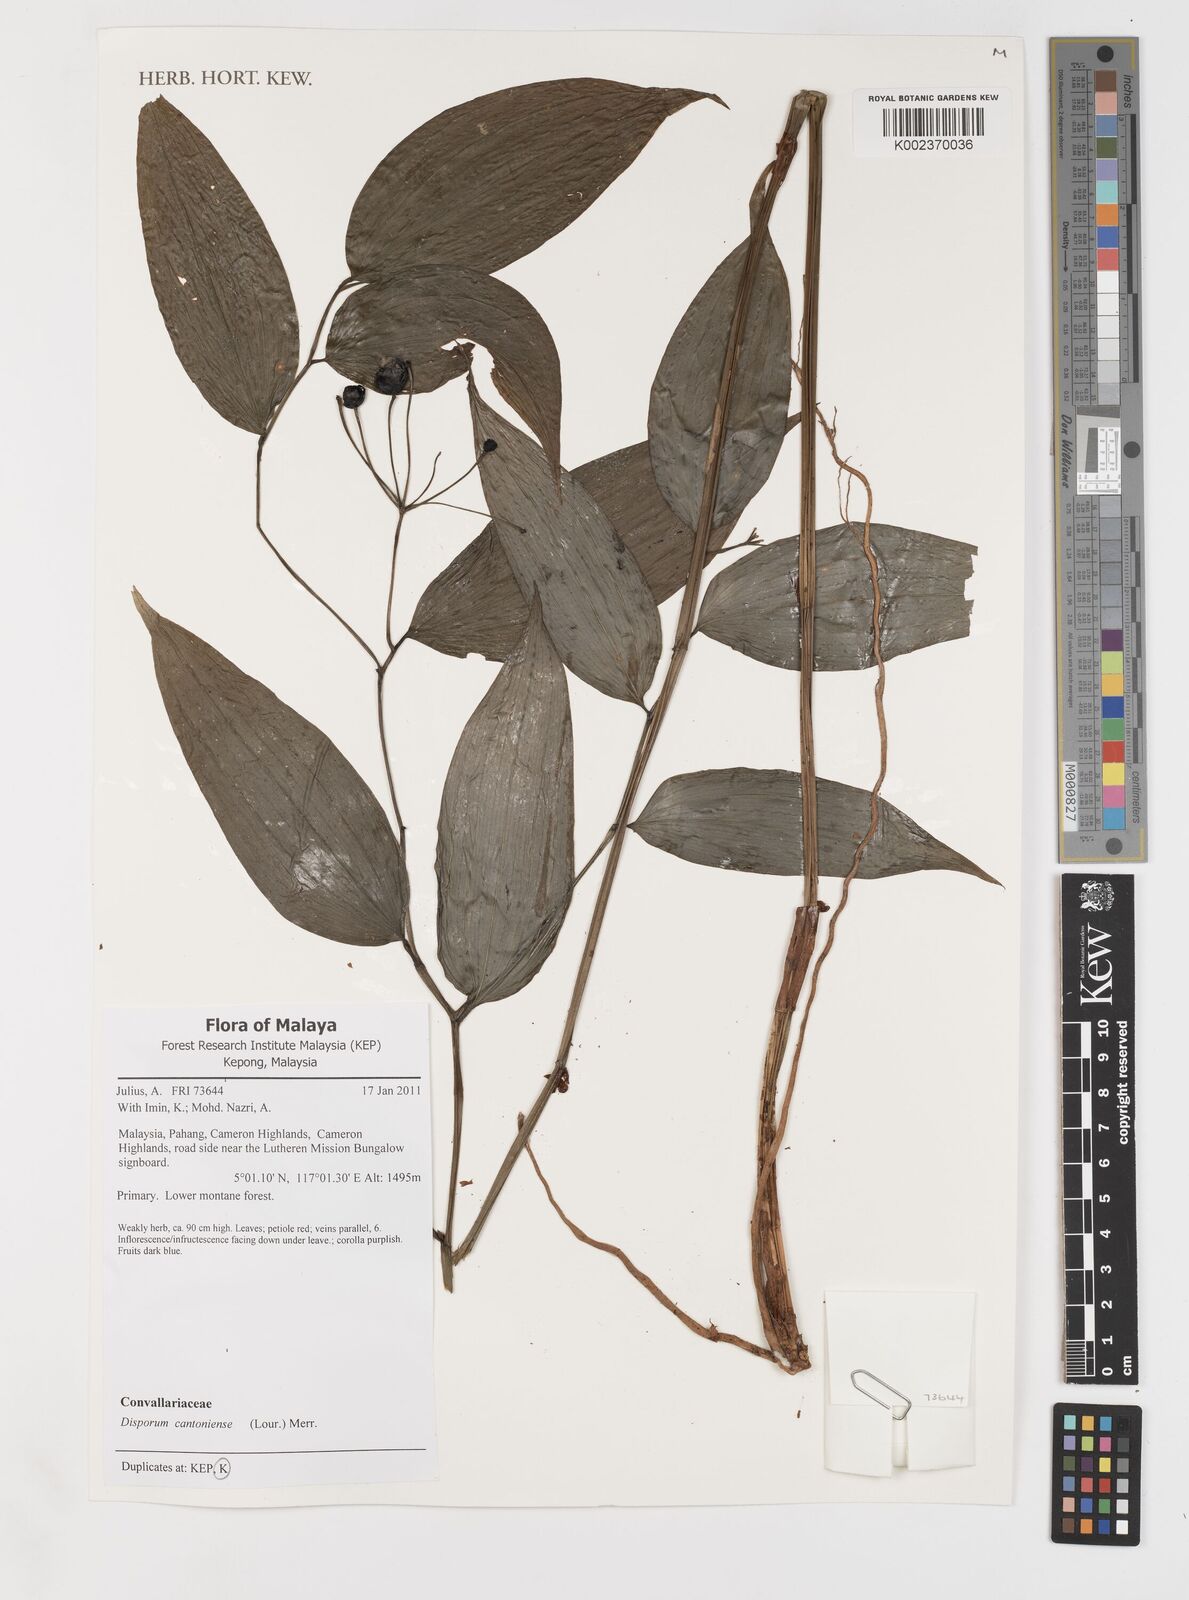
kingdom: Plantae
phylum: Tracheophyta
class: Liliopsida
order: Liliales
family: Colchicaceae
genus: Disporum
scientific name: Disporum cantoniense
